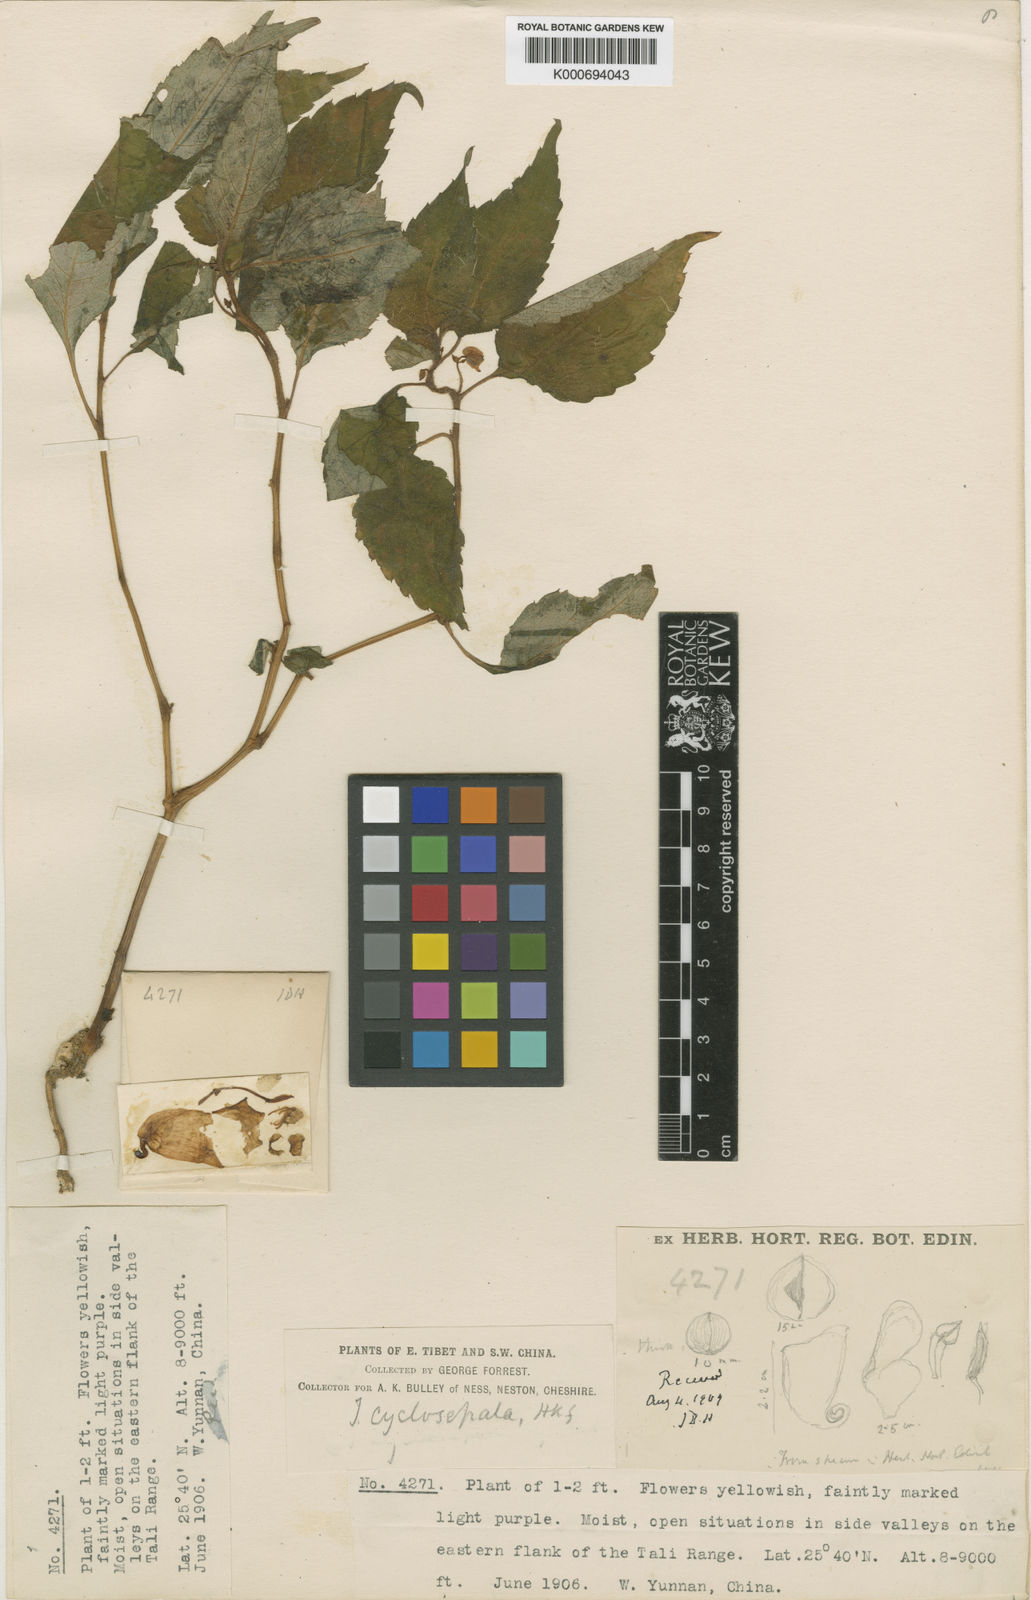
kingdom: Plantae
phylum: Tracheophyta
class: Magnoliopsida
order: Ericales
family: Balsaminaceae
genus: Impatiens
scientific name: Impatiens cyclosepala
